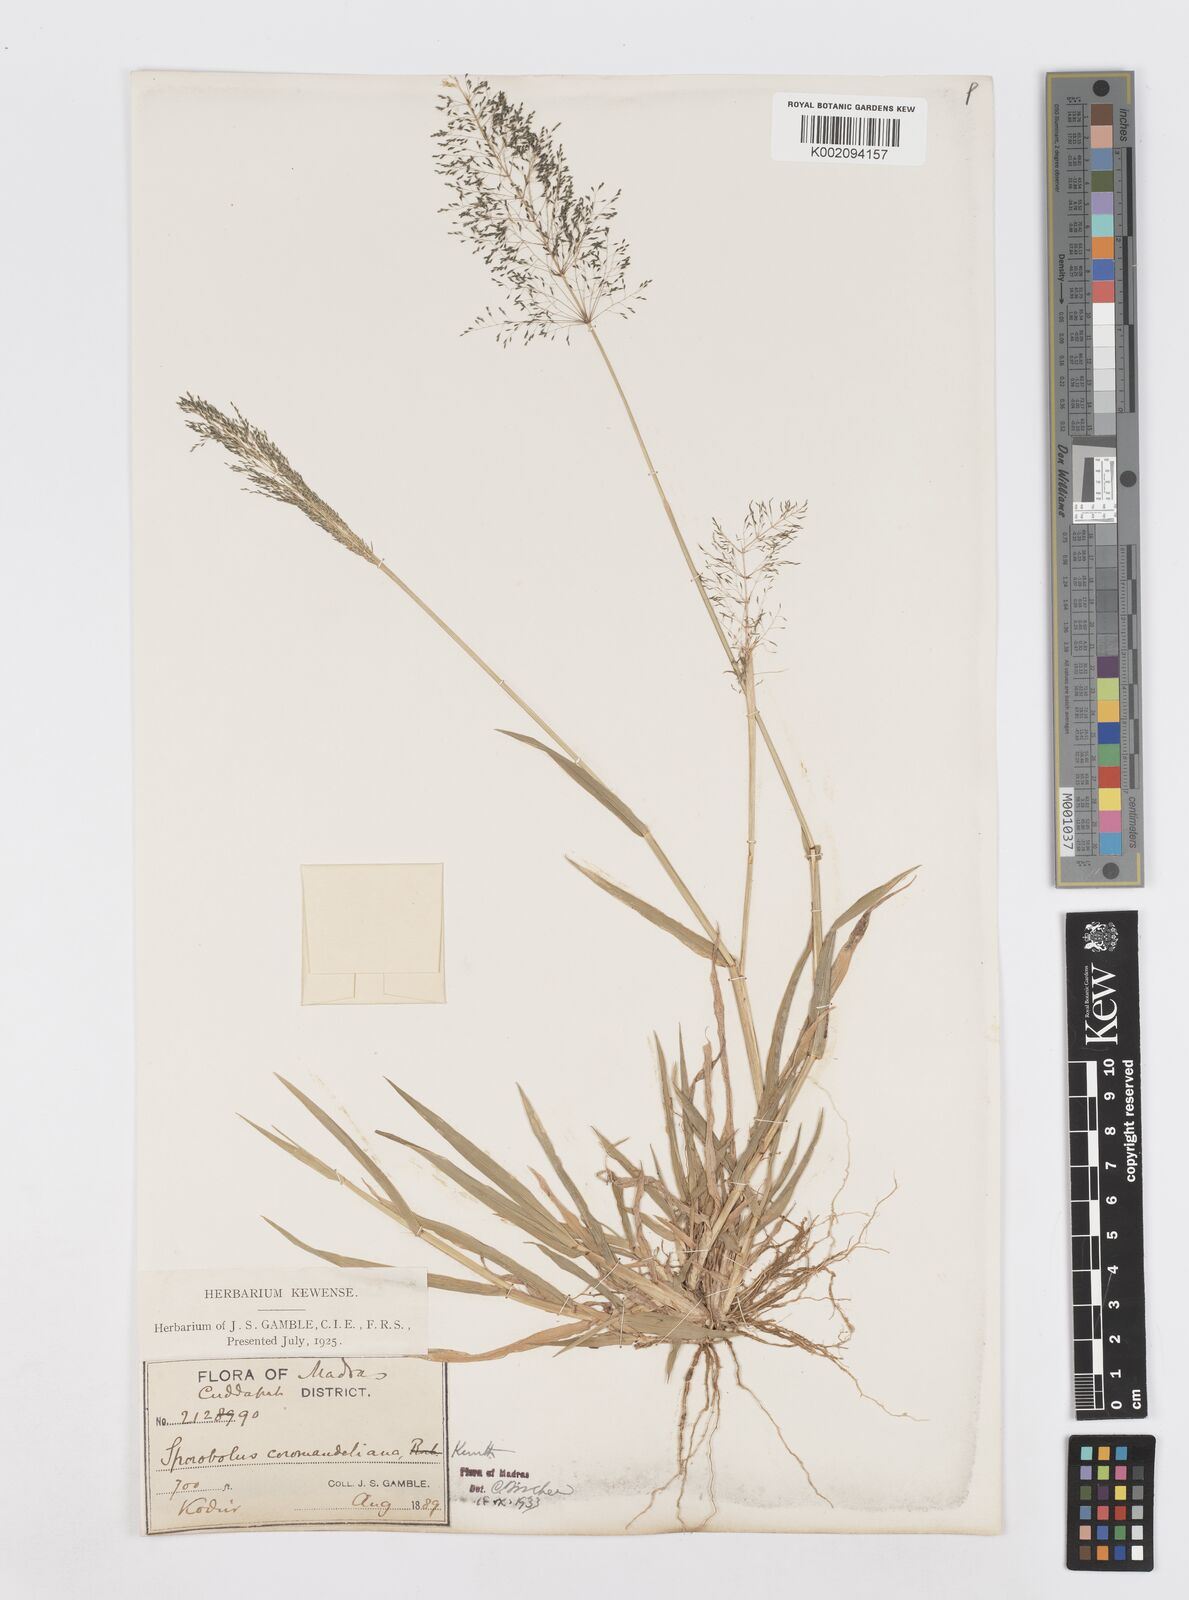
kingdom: Plantae
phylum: Tracheophyta
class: Liliopsida
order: Poales
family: Poaceae
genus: Sporobolus
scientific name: Sporobolus coromandelianus
